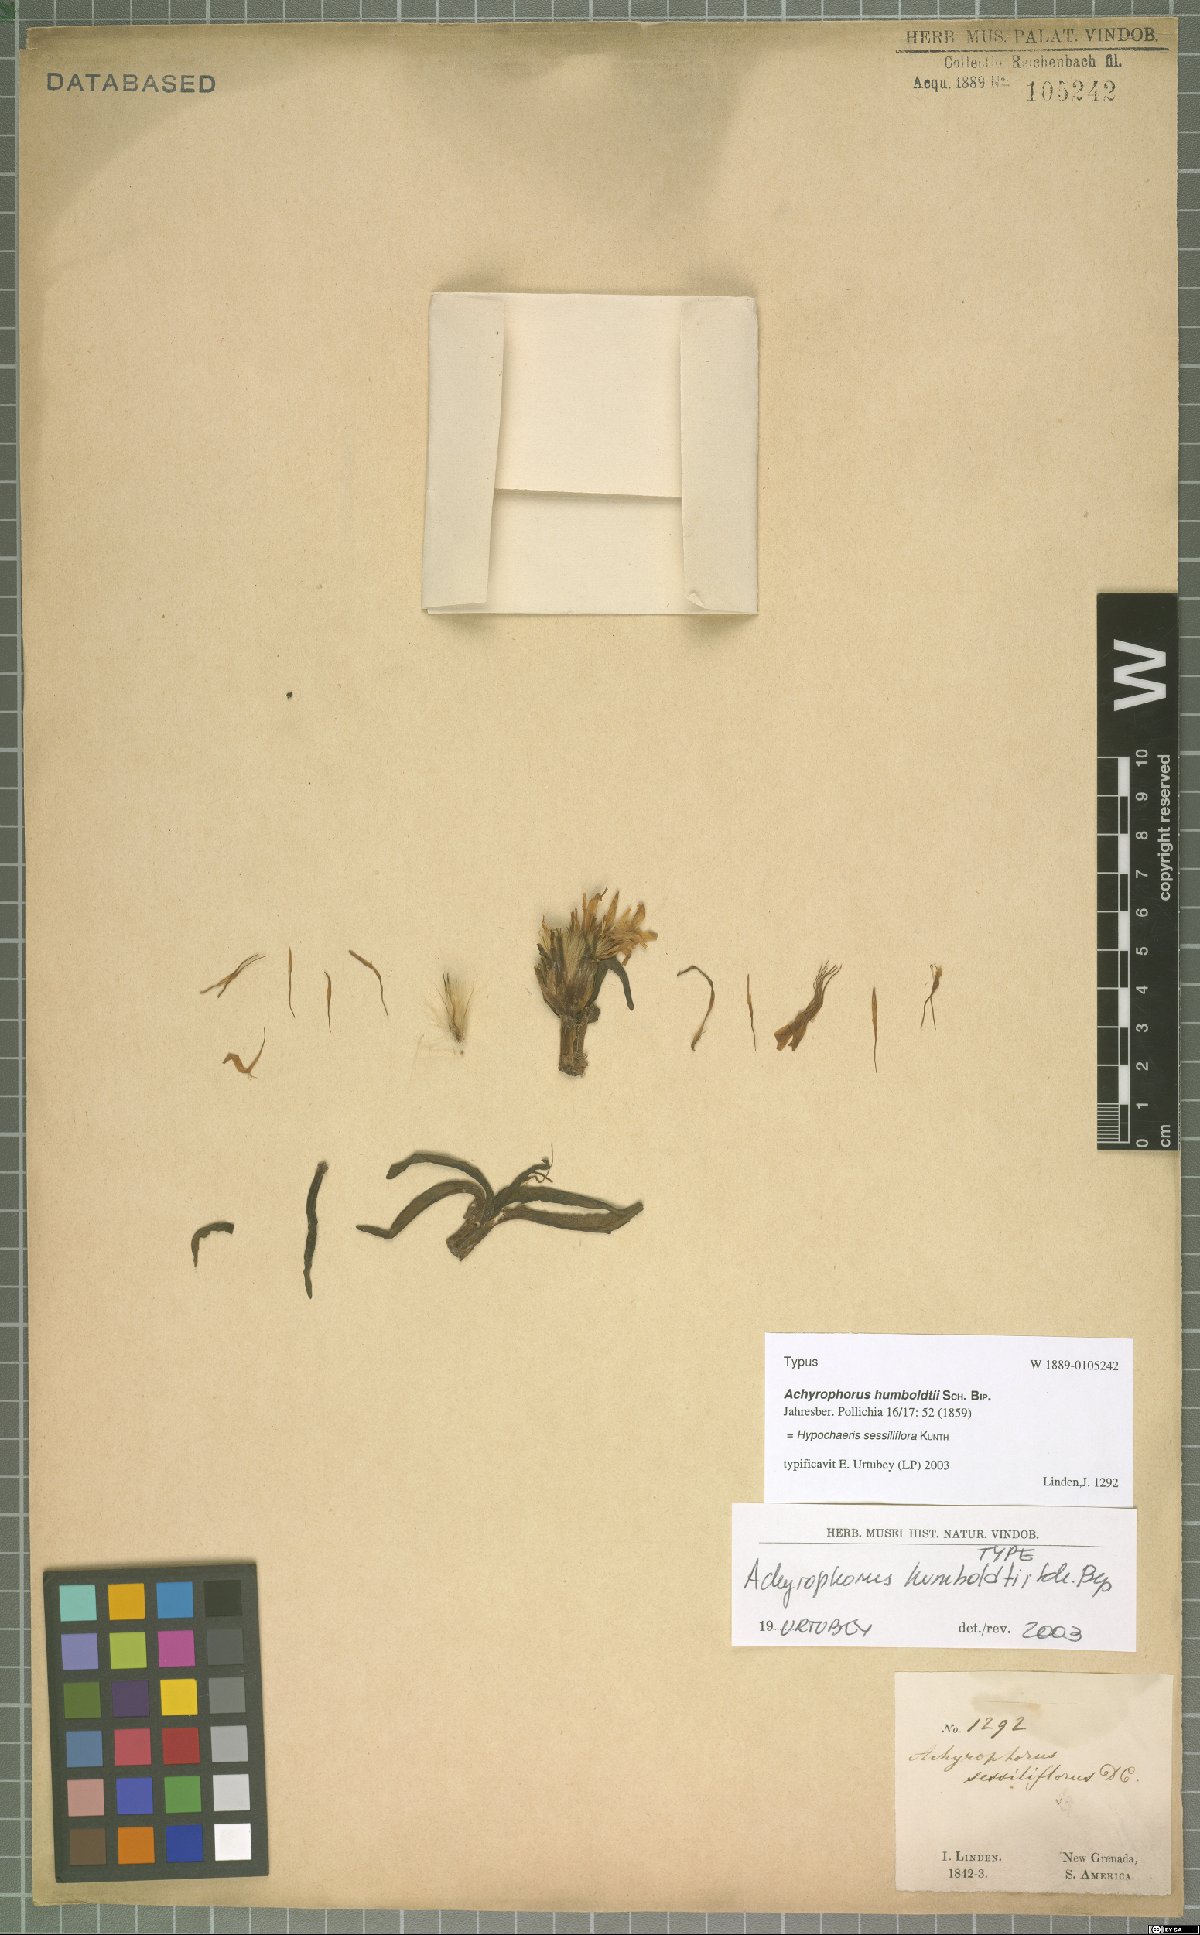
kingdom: Plantae
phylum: Tracheophyta
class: Magnoliopsida
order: Asterales
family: Asteraceae
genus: Hypochaeris
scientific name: Hypochaeris sessiliflora
